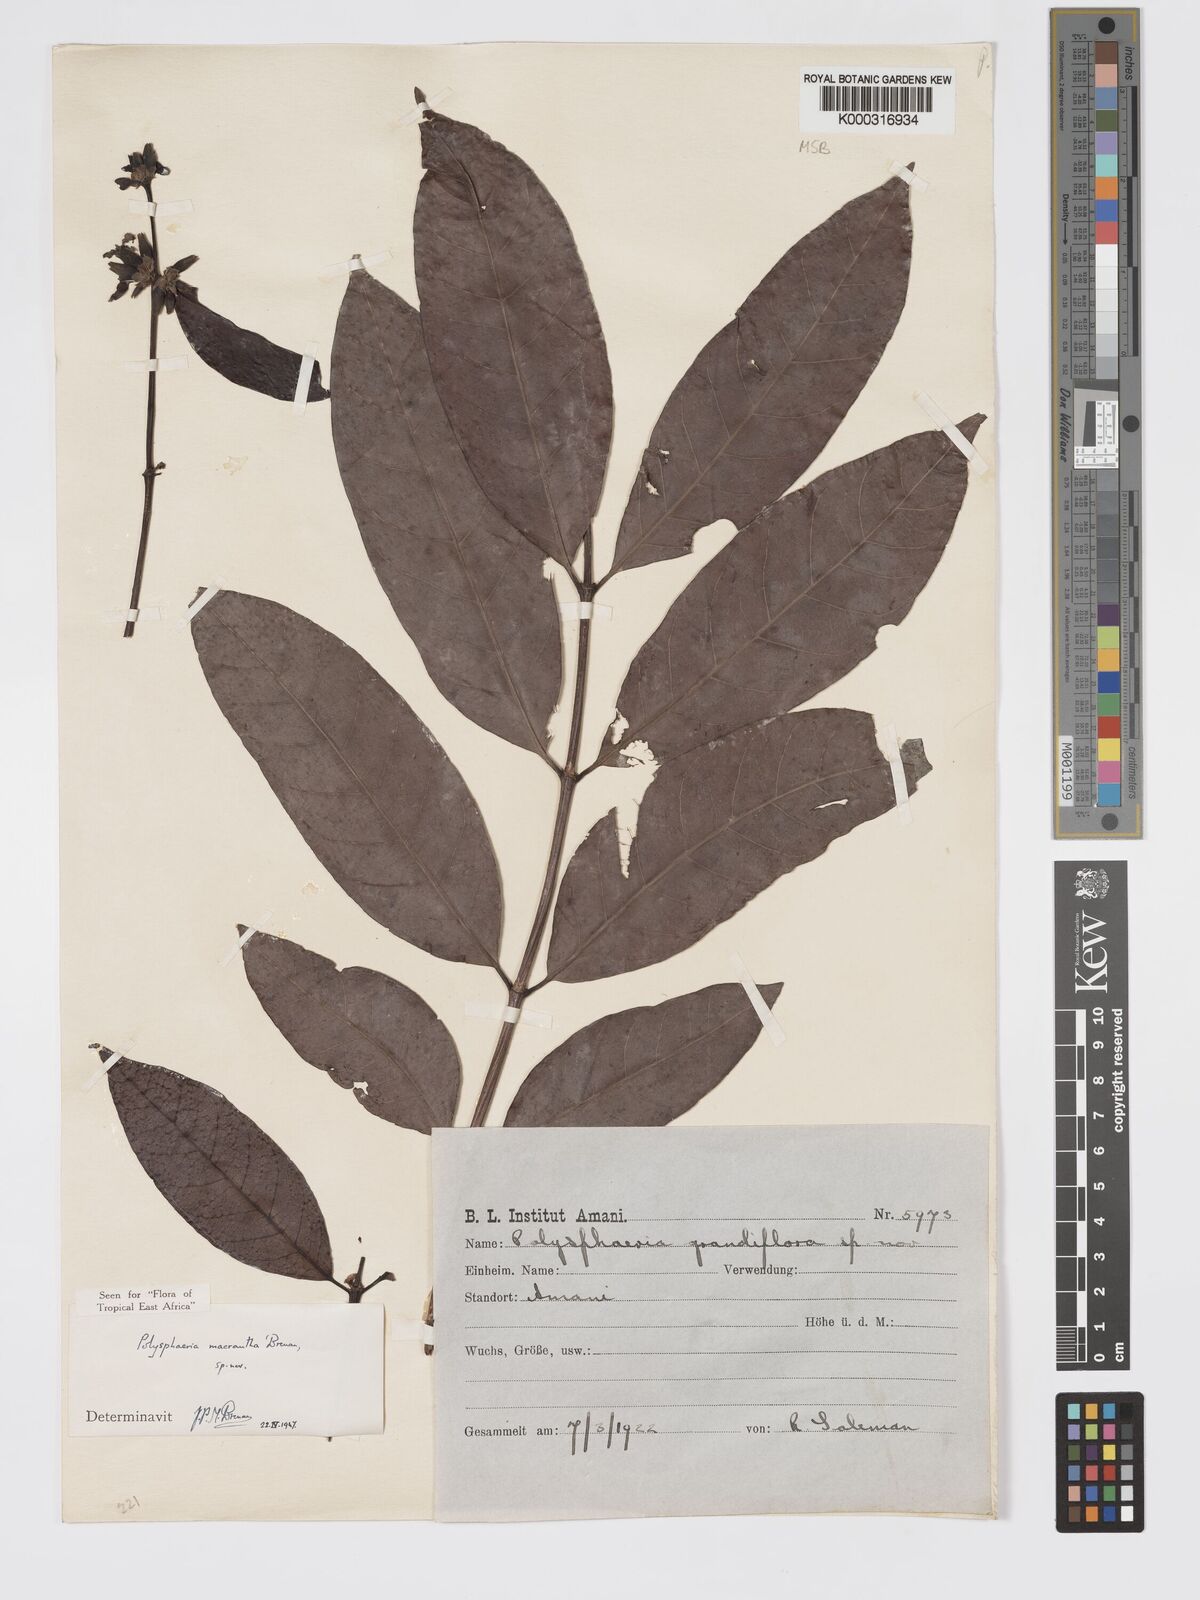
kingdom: Plantae
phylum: Tracheophyta
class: Magnoliopsida
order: Gentianales
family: Rubiaceae
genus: Polysphaeria
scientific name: Polysphaeria macrantha
